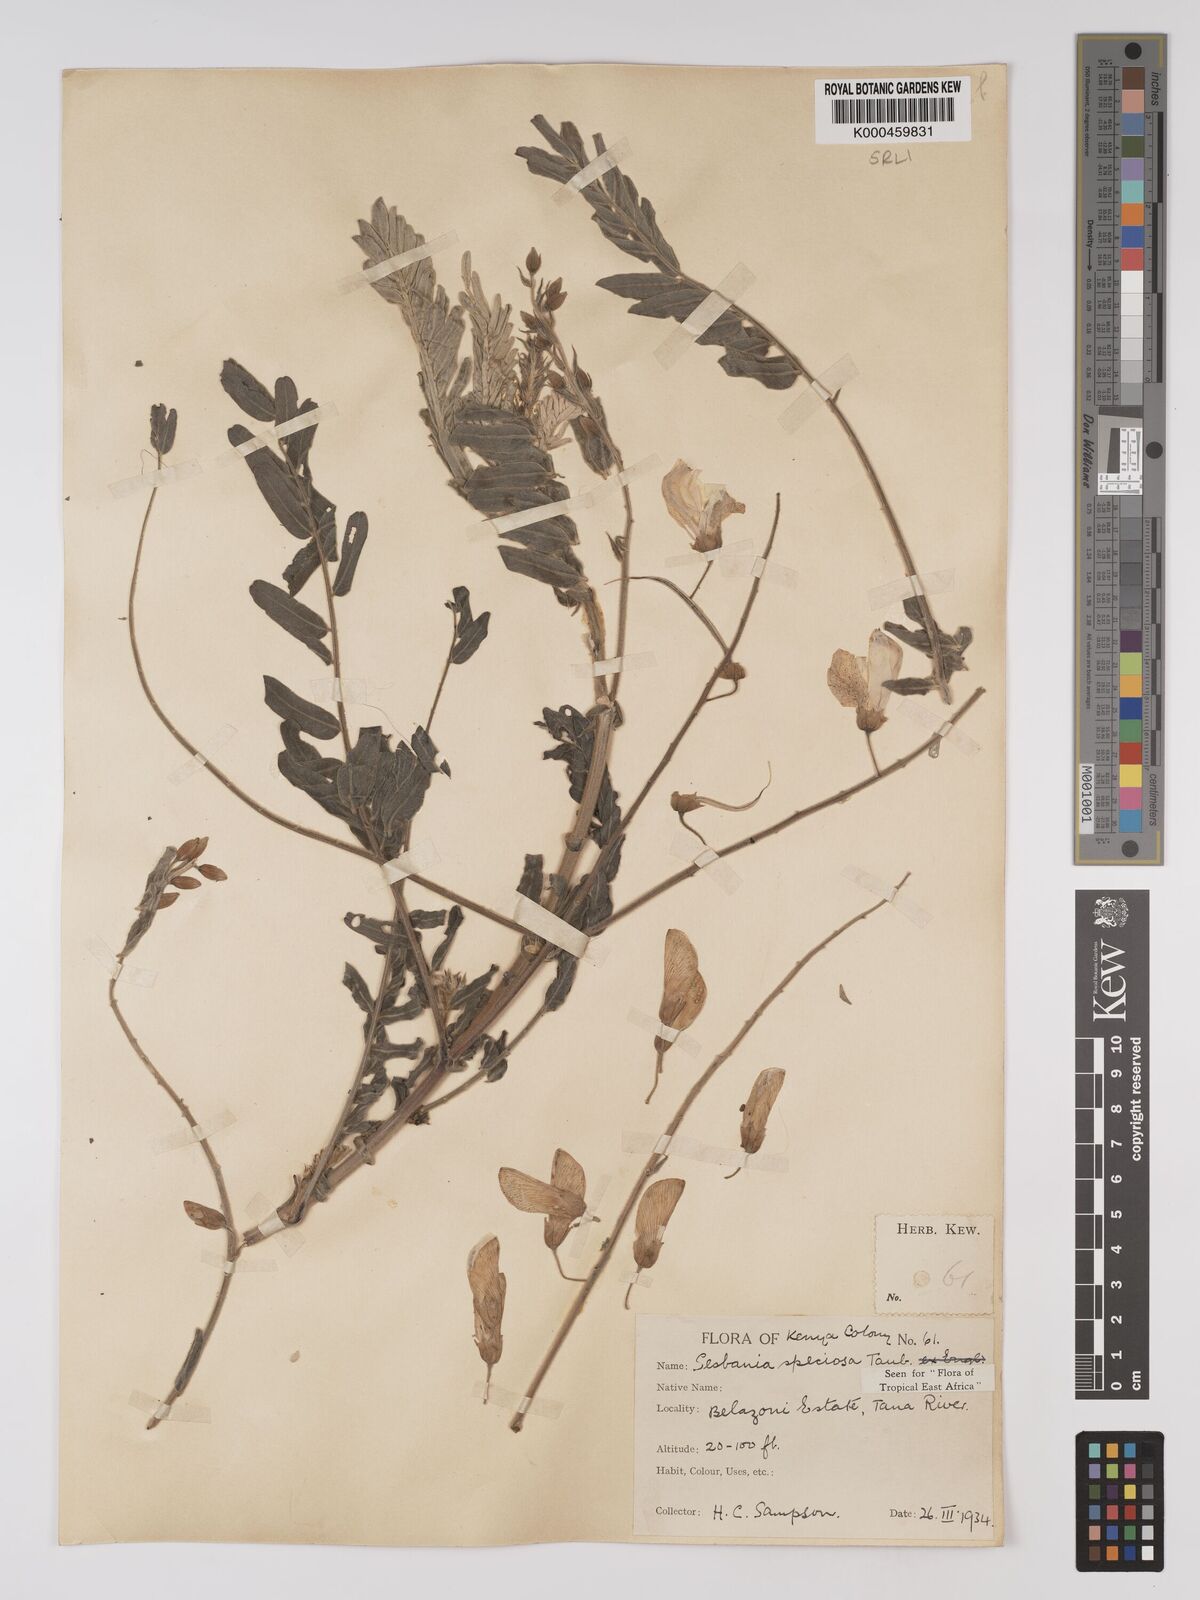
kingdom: Plantae
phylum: Tracheophyta
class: Magnoliopsida
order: Fabales
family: Fabaceae
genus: Sesbania
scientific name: Sesbania
